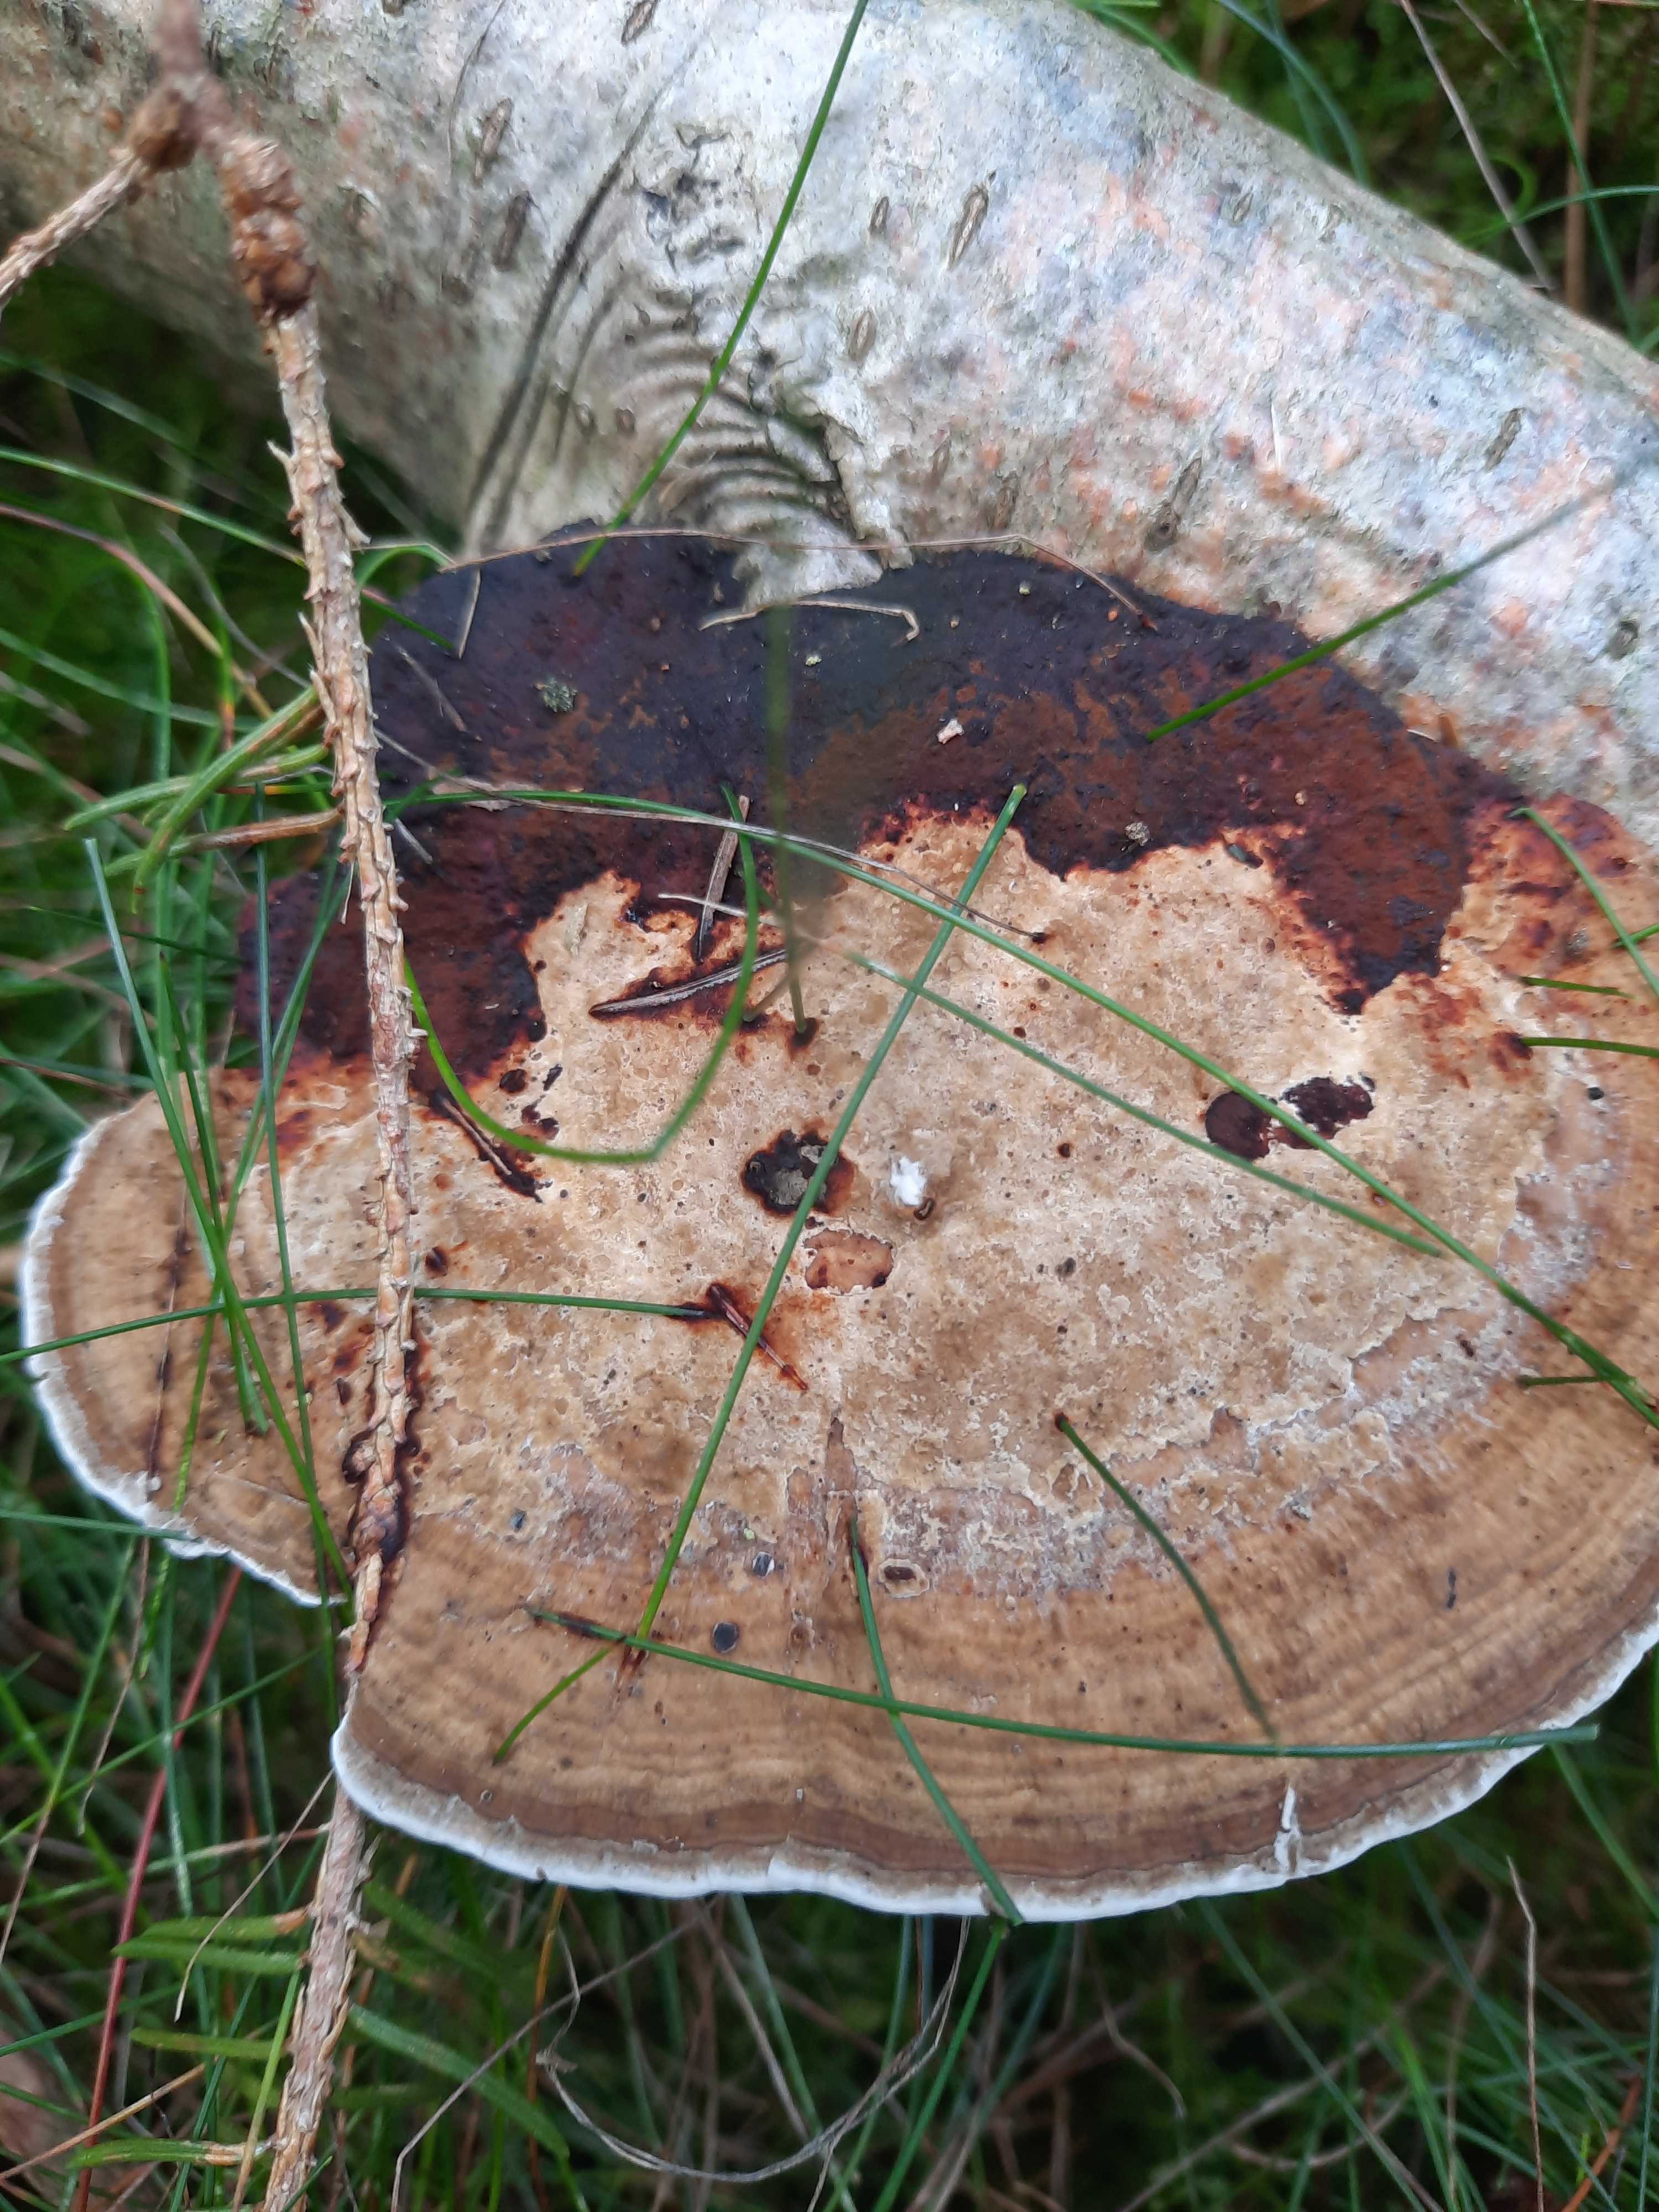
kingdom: Fungi
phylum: Basidiomycota
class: Agaricomycetes
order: Polyporales
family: Polyporaceae
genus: Daedaleopsis
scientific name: Daedaleopsis confragosa
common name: rødmende læderporesvamp
